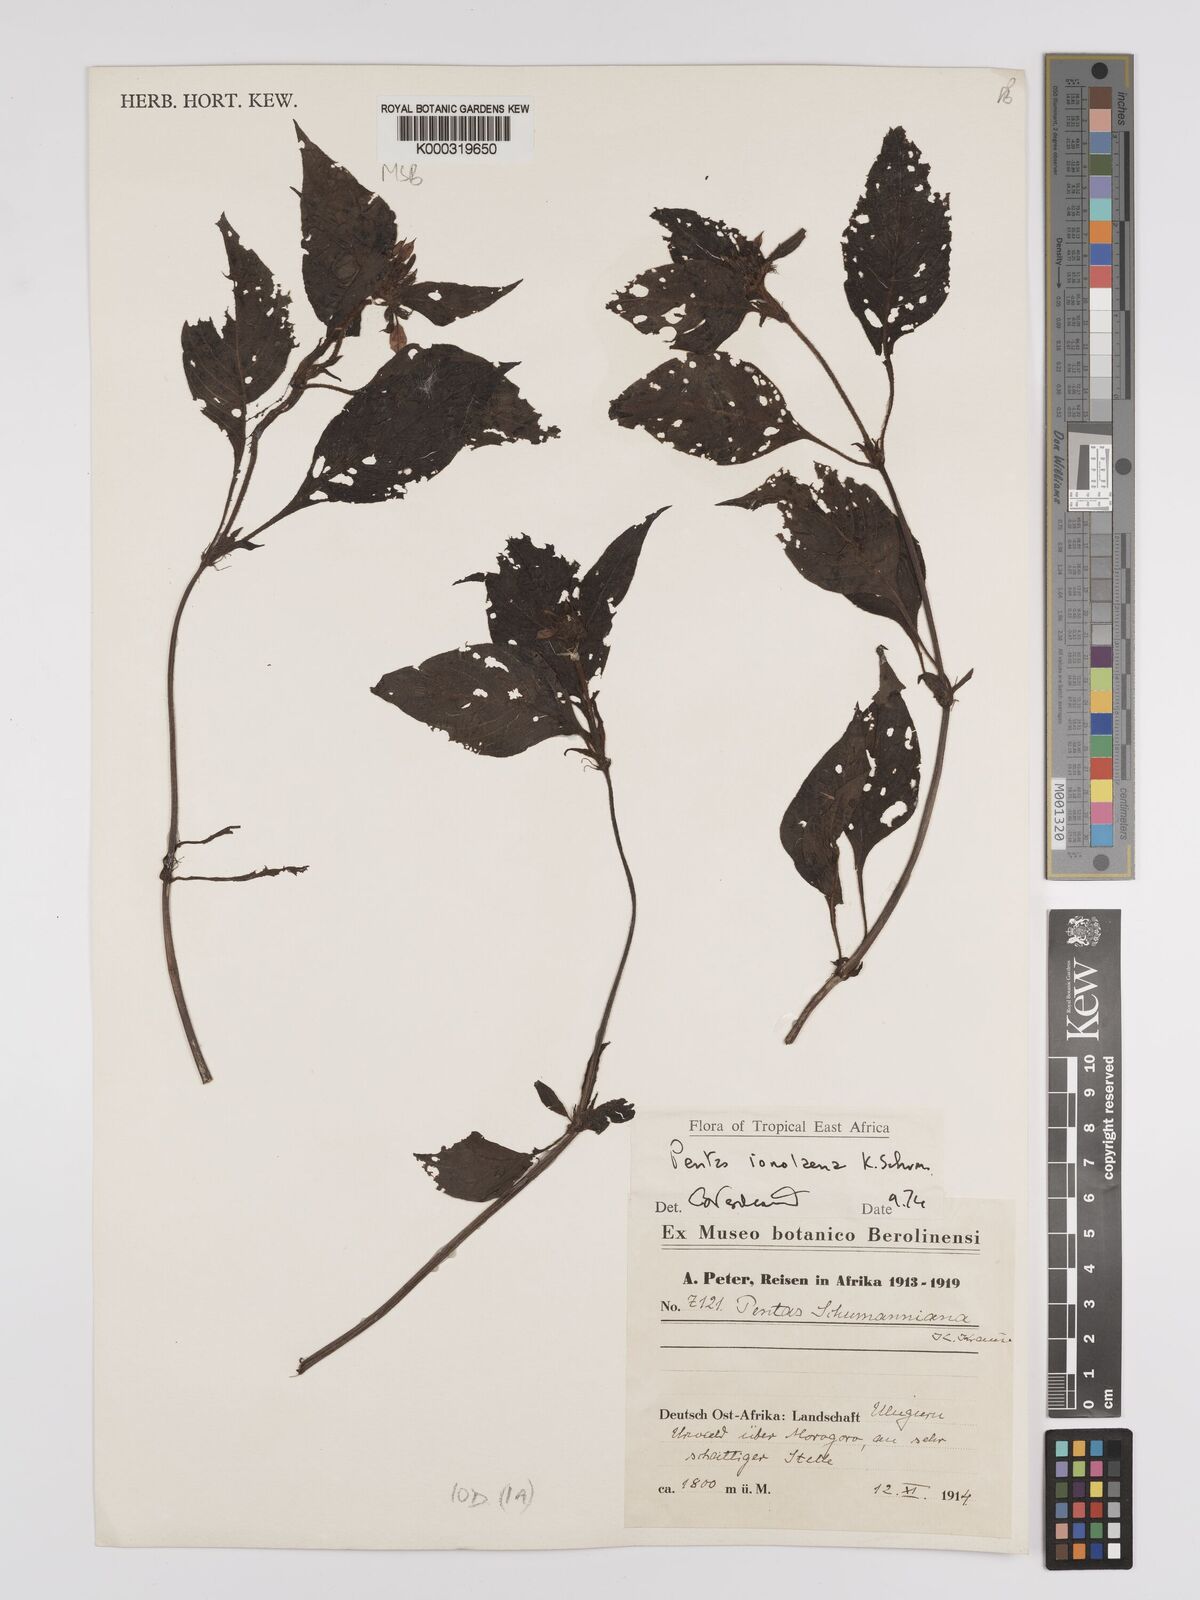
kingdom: Plantae
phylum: Tracheophyta
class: Magnoliopsida
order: Gentianales
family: Rubiaceae
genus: Phyllopentas
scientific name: Phyllopentas ionolaena
